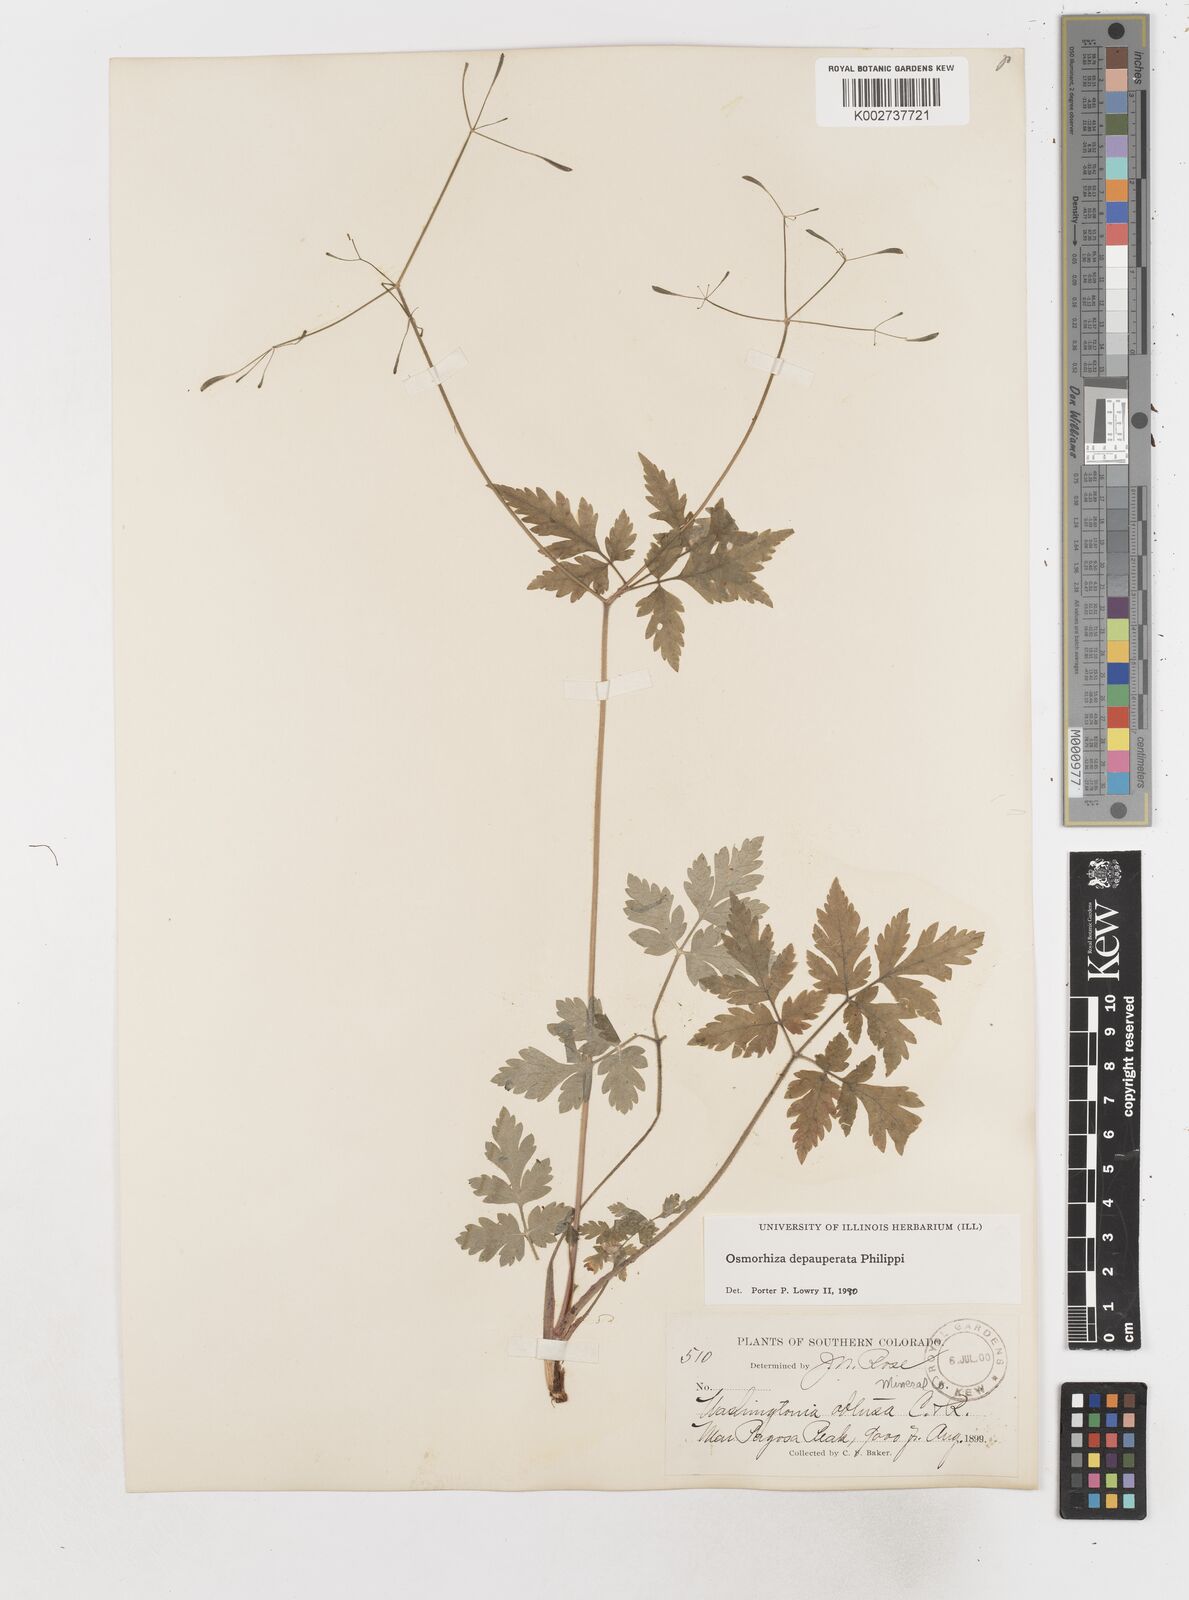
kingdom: Plantae
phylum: Tracheophyta
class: Magnoliopsida
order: Apiales
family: Apiaceae
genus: Osmorhiza
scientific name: Osmorhiza depauperata
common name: Blunt sweet cicely
